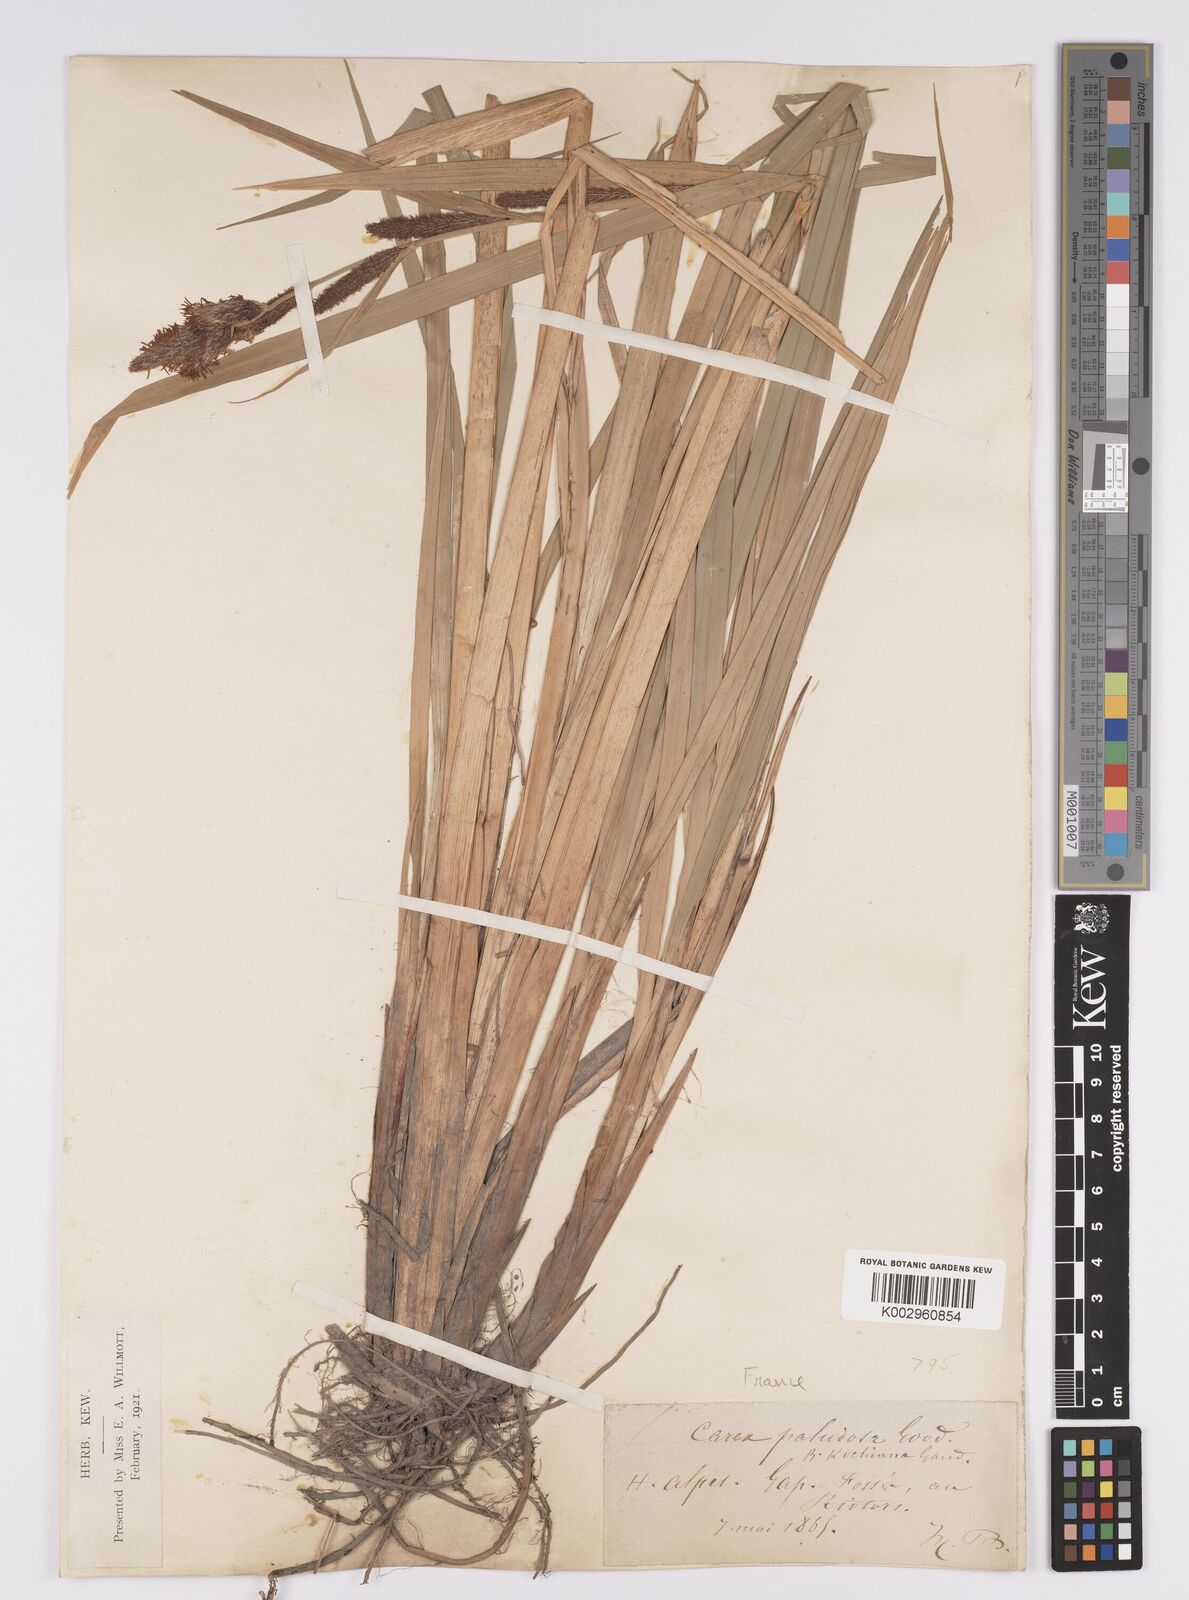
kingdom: Plantae
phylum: Tracheophyta
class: Liliopsida
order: Poales
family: Cyperaceae
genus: Carex
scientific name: Carex acutiformis
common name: Lesser pond-sedge
